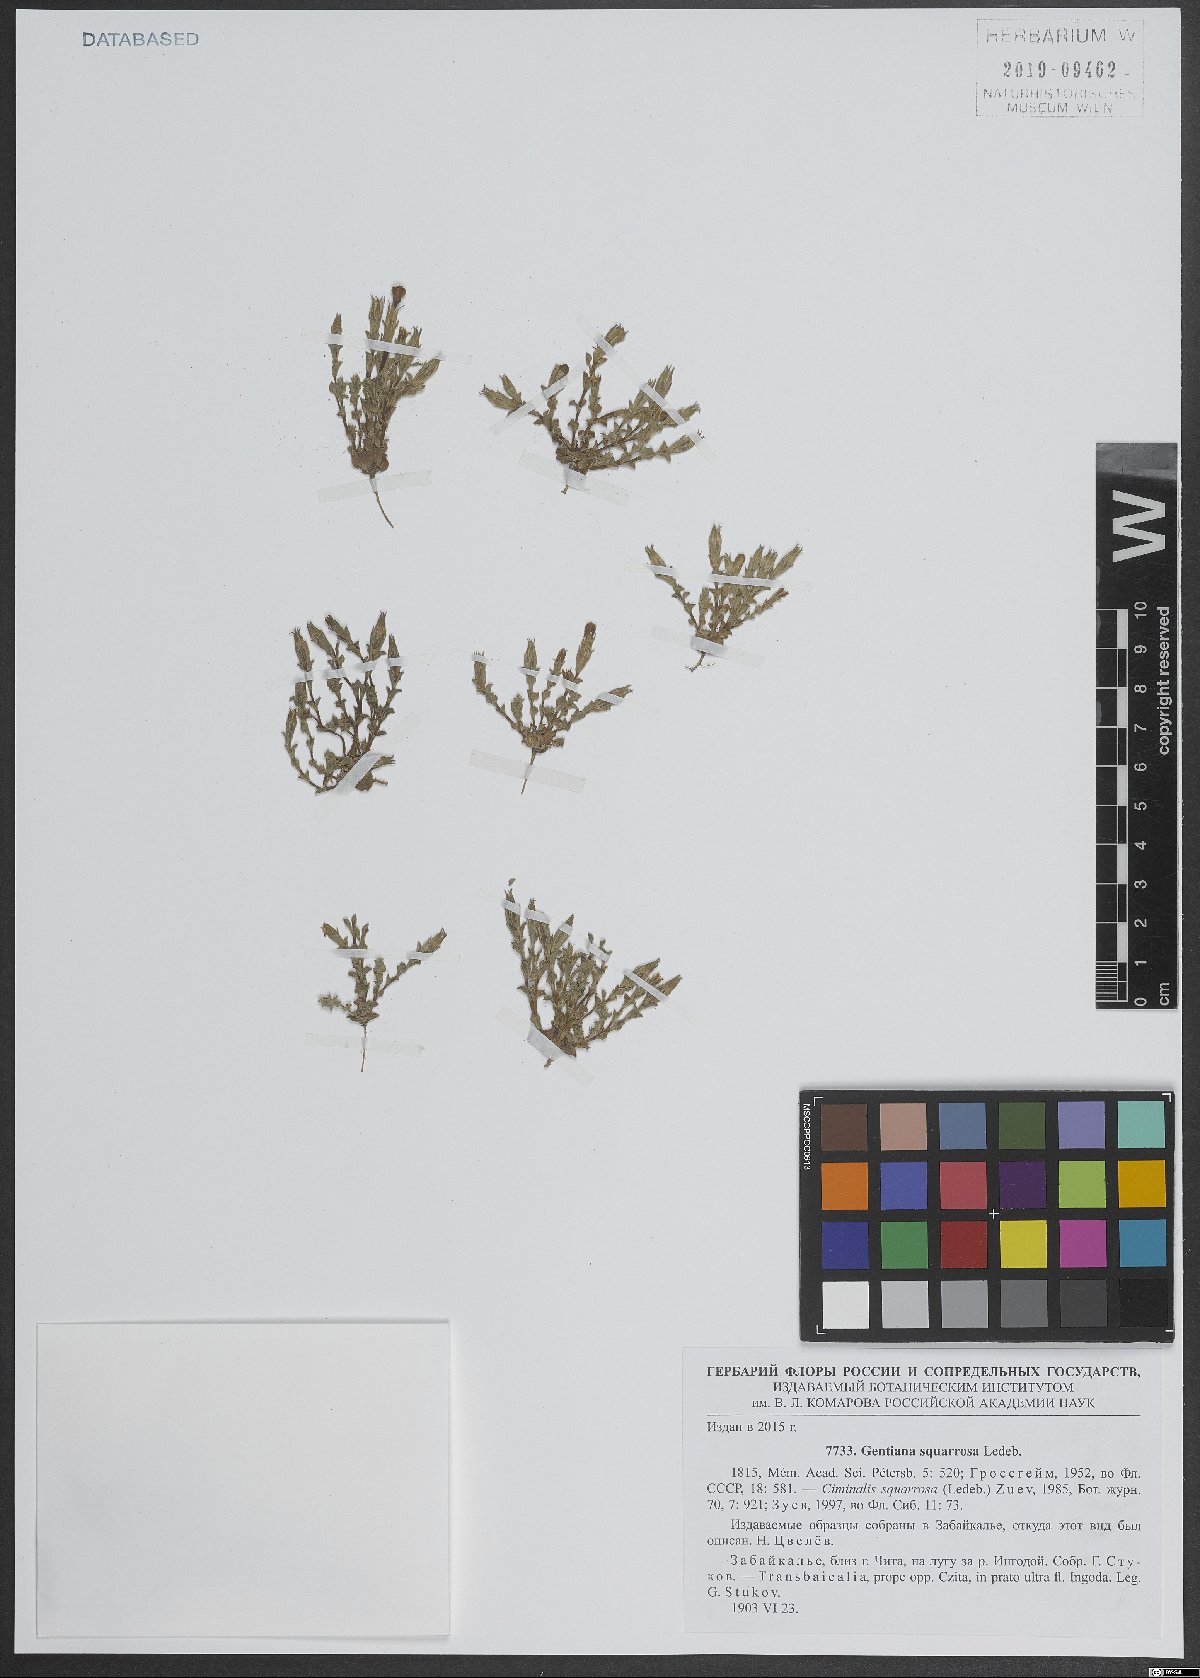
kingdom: Plantae
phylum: Tracheophyta
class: Magnoliopsida
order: Gentianales
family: Gentianaceae
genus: Gentiana
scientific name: Gentiana squarrosa
